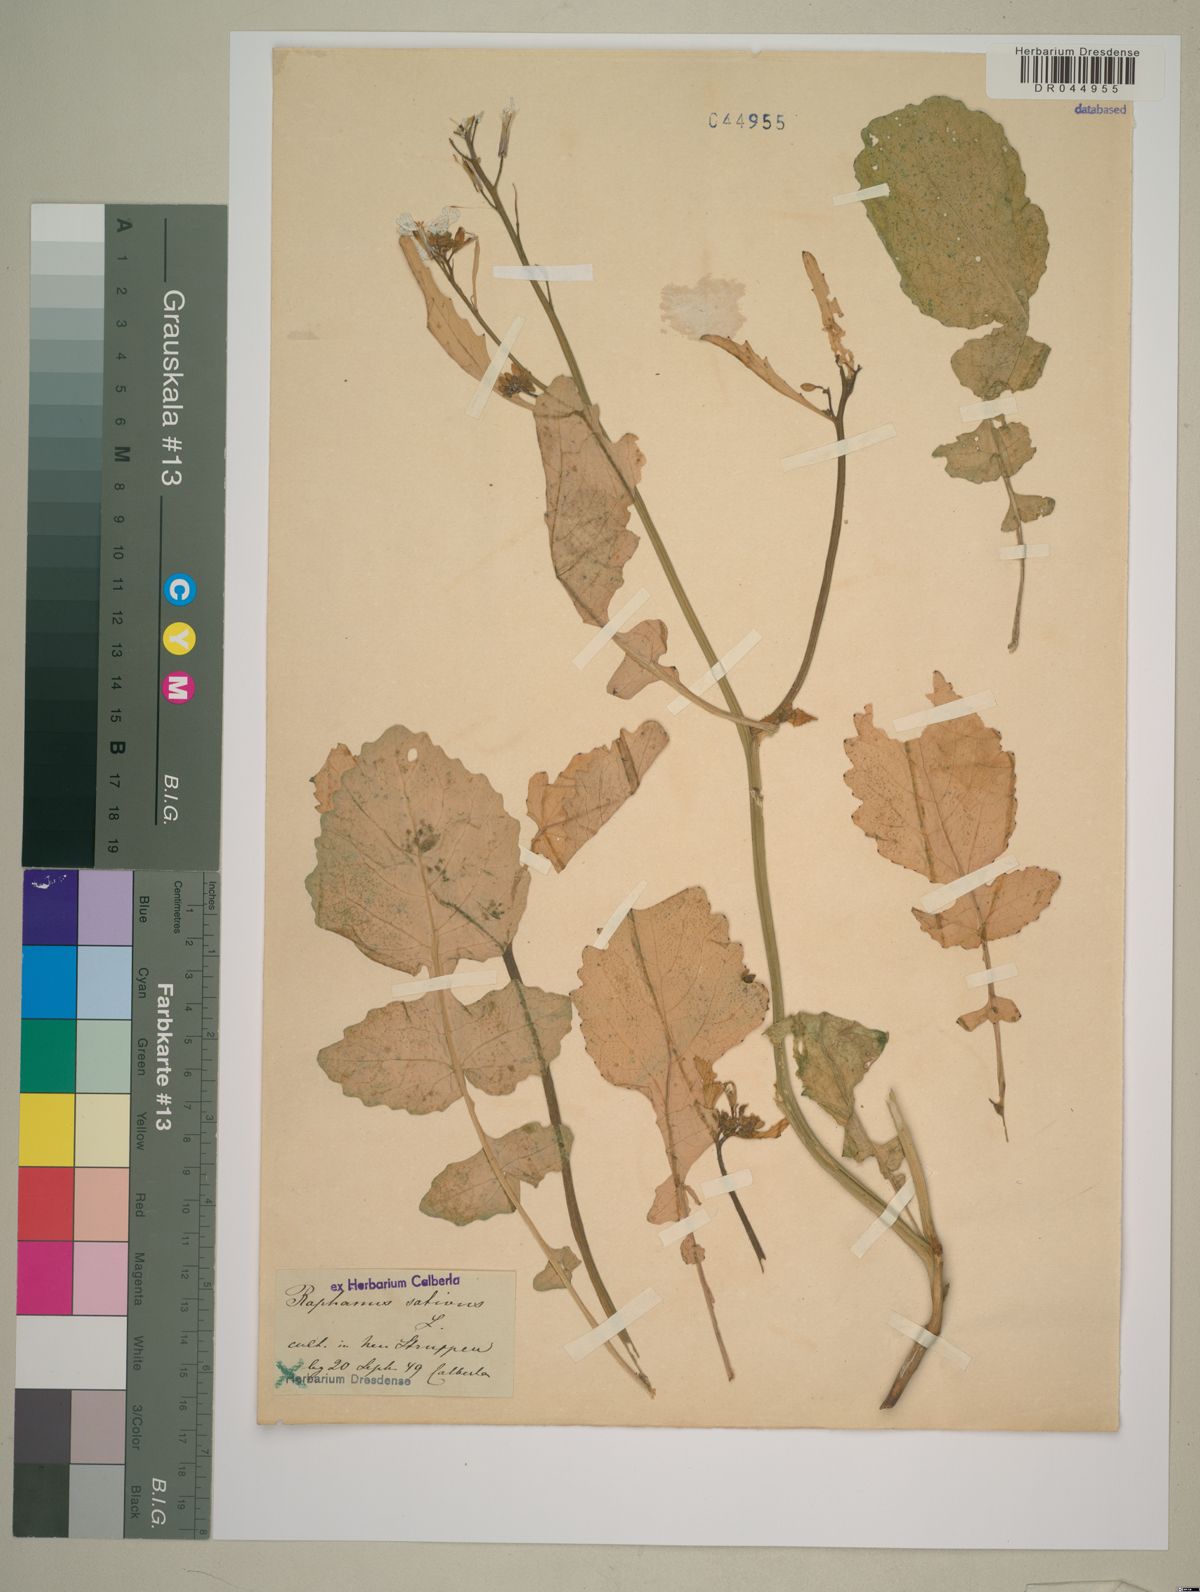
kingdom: Plantae
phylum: Tracheophyta
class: Magnoliopsida
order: Brassicales
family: Brassicaceae
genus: Raphanus
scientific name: Raphanus sativus
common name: Cultivated radish
